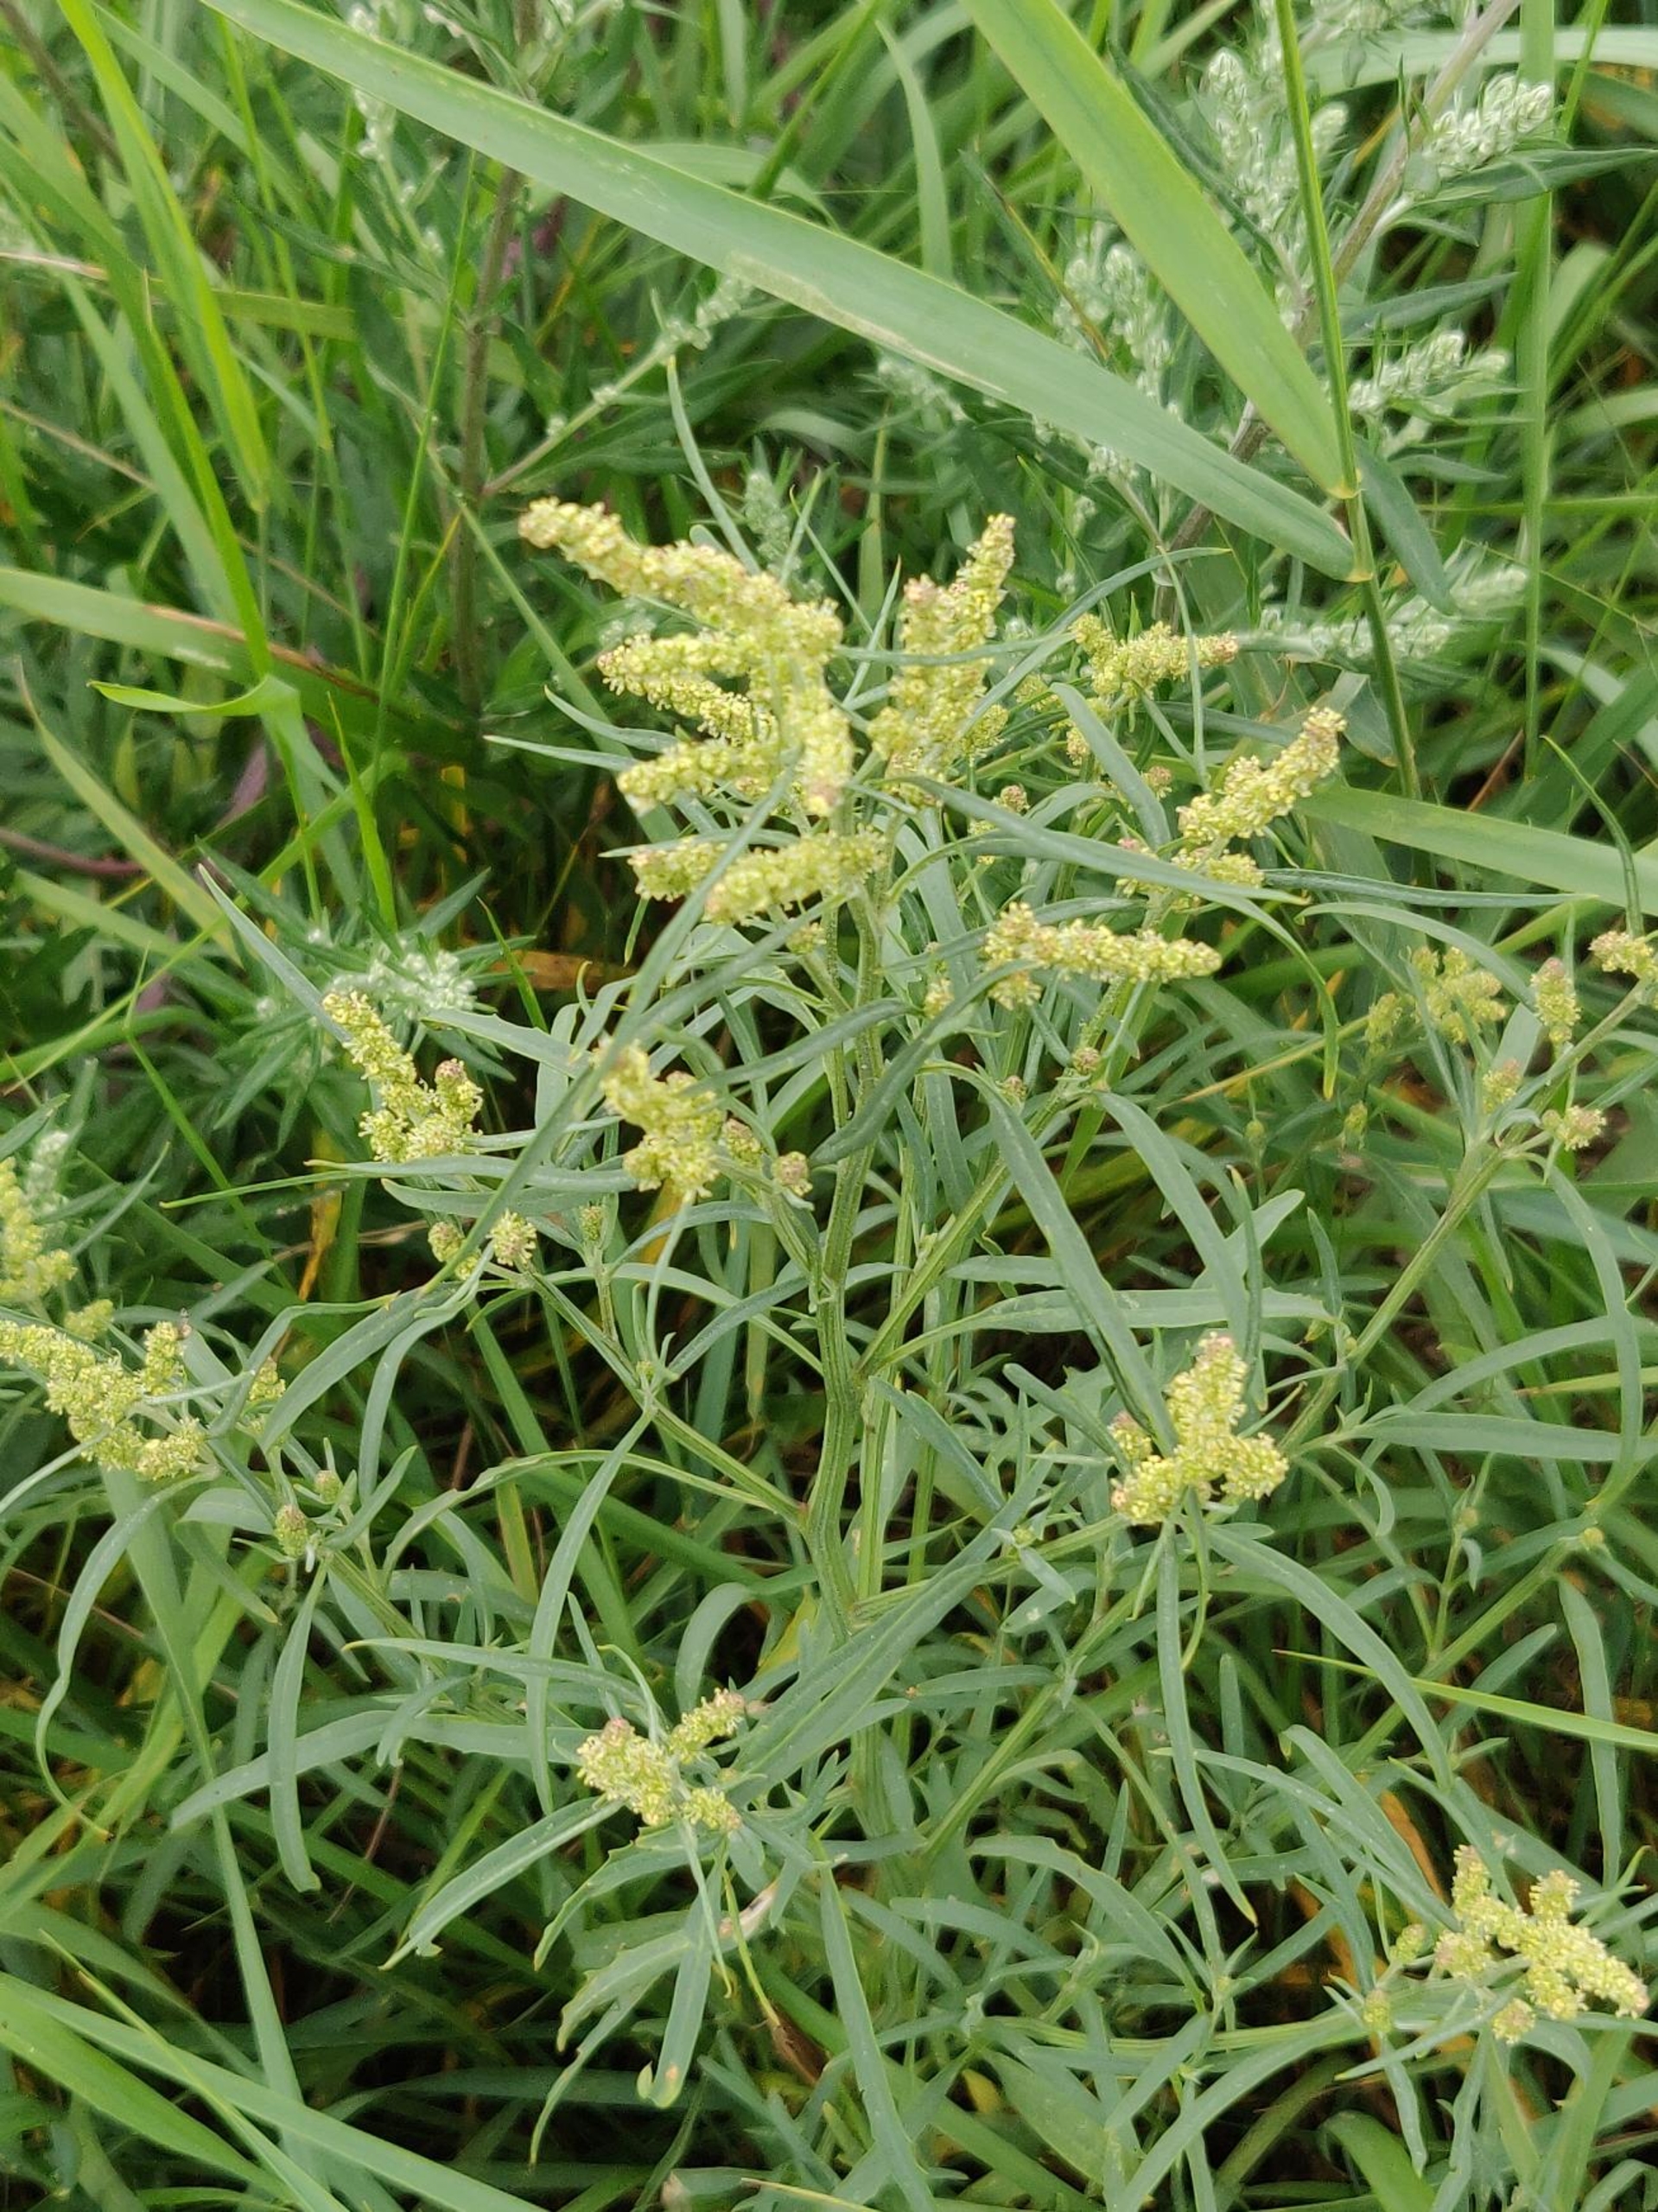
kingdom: Plantae
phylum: Tracheophyta
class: Magnoliopsida
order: Caryophyllales
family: Amaranthaceae
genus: Atriplex
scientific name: Atriplex littoralis
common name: Strand-mælde
